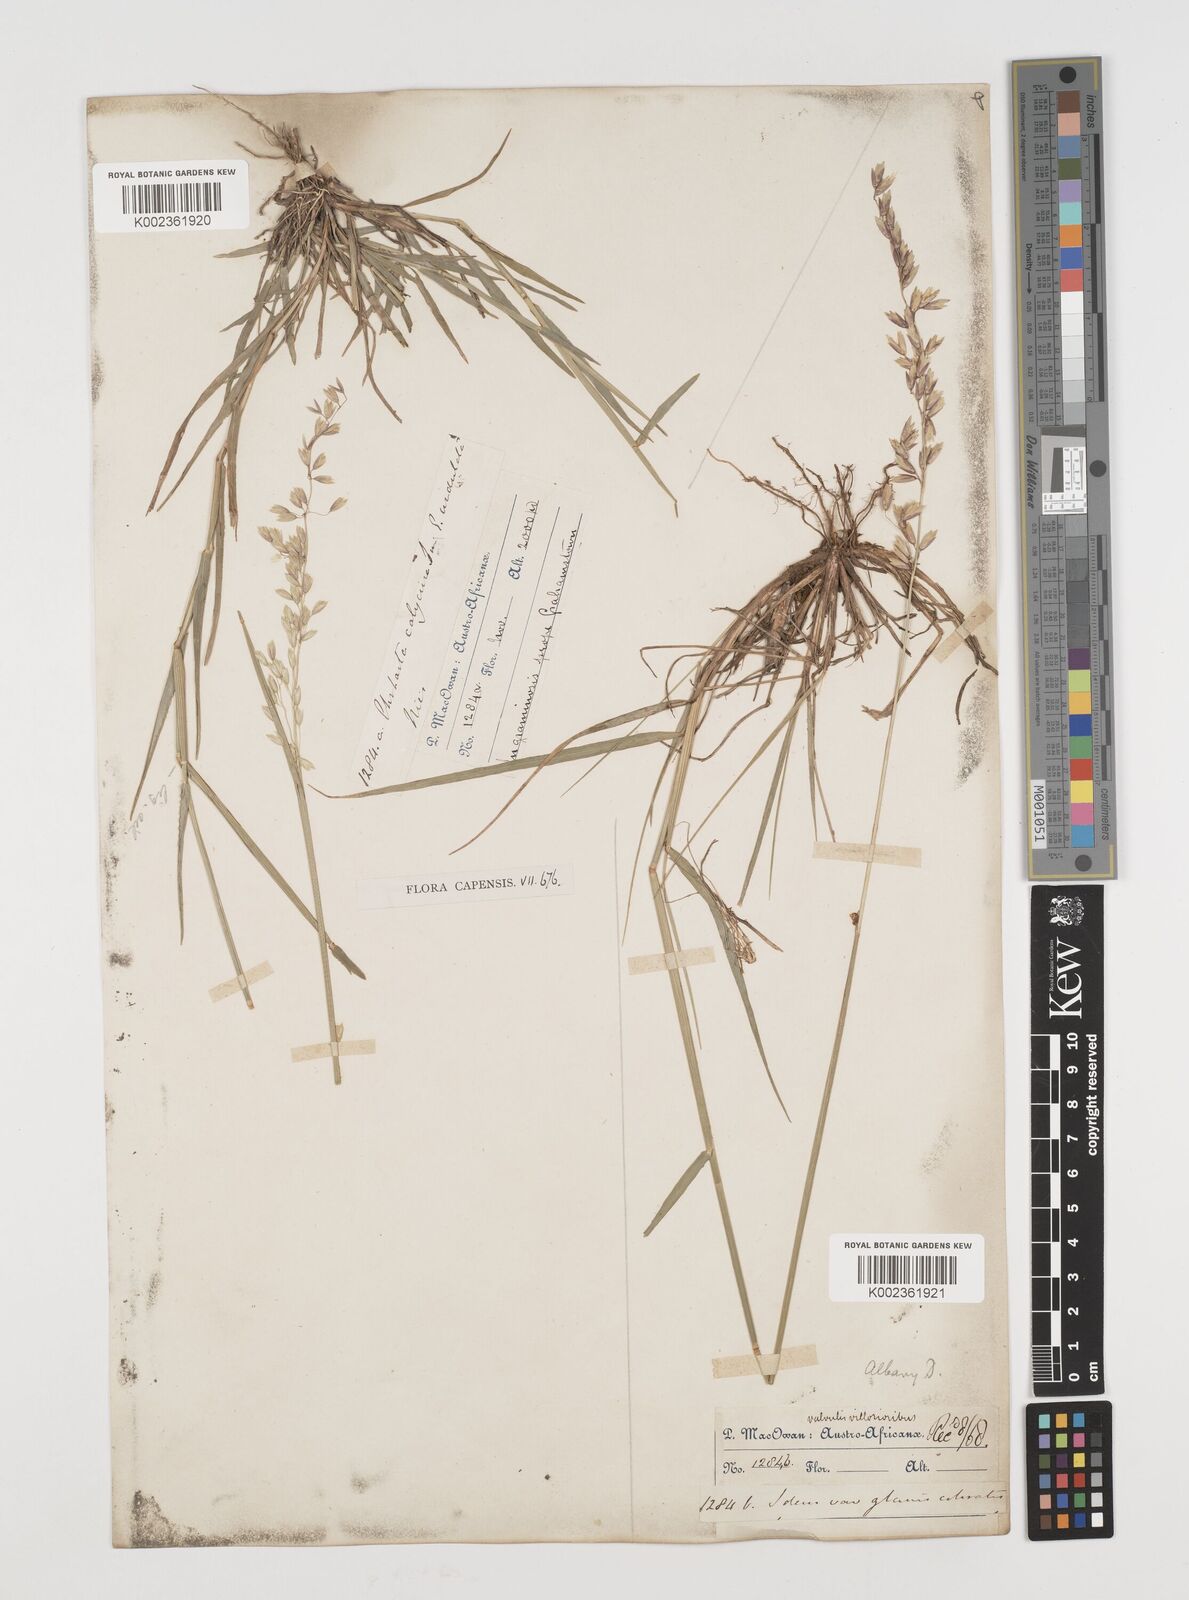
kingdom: Plantae
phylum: Tracheophyta
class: Liliopsida
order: Poales
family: Poaceae
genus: Ehrharta
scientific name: Ehrharta calycina
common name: Perennial veldtgrass
